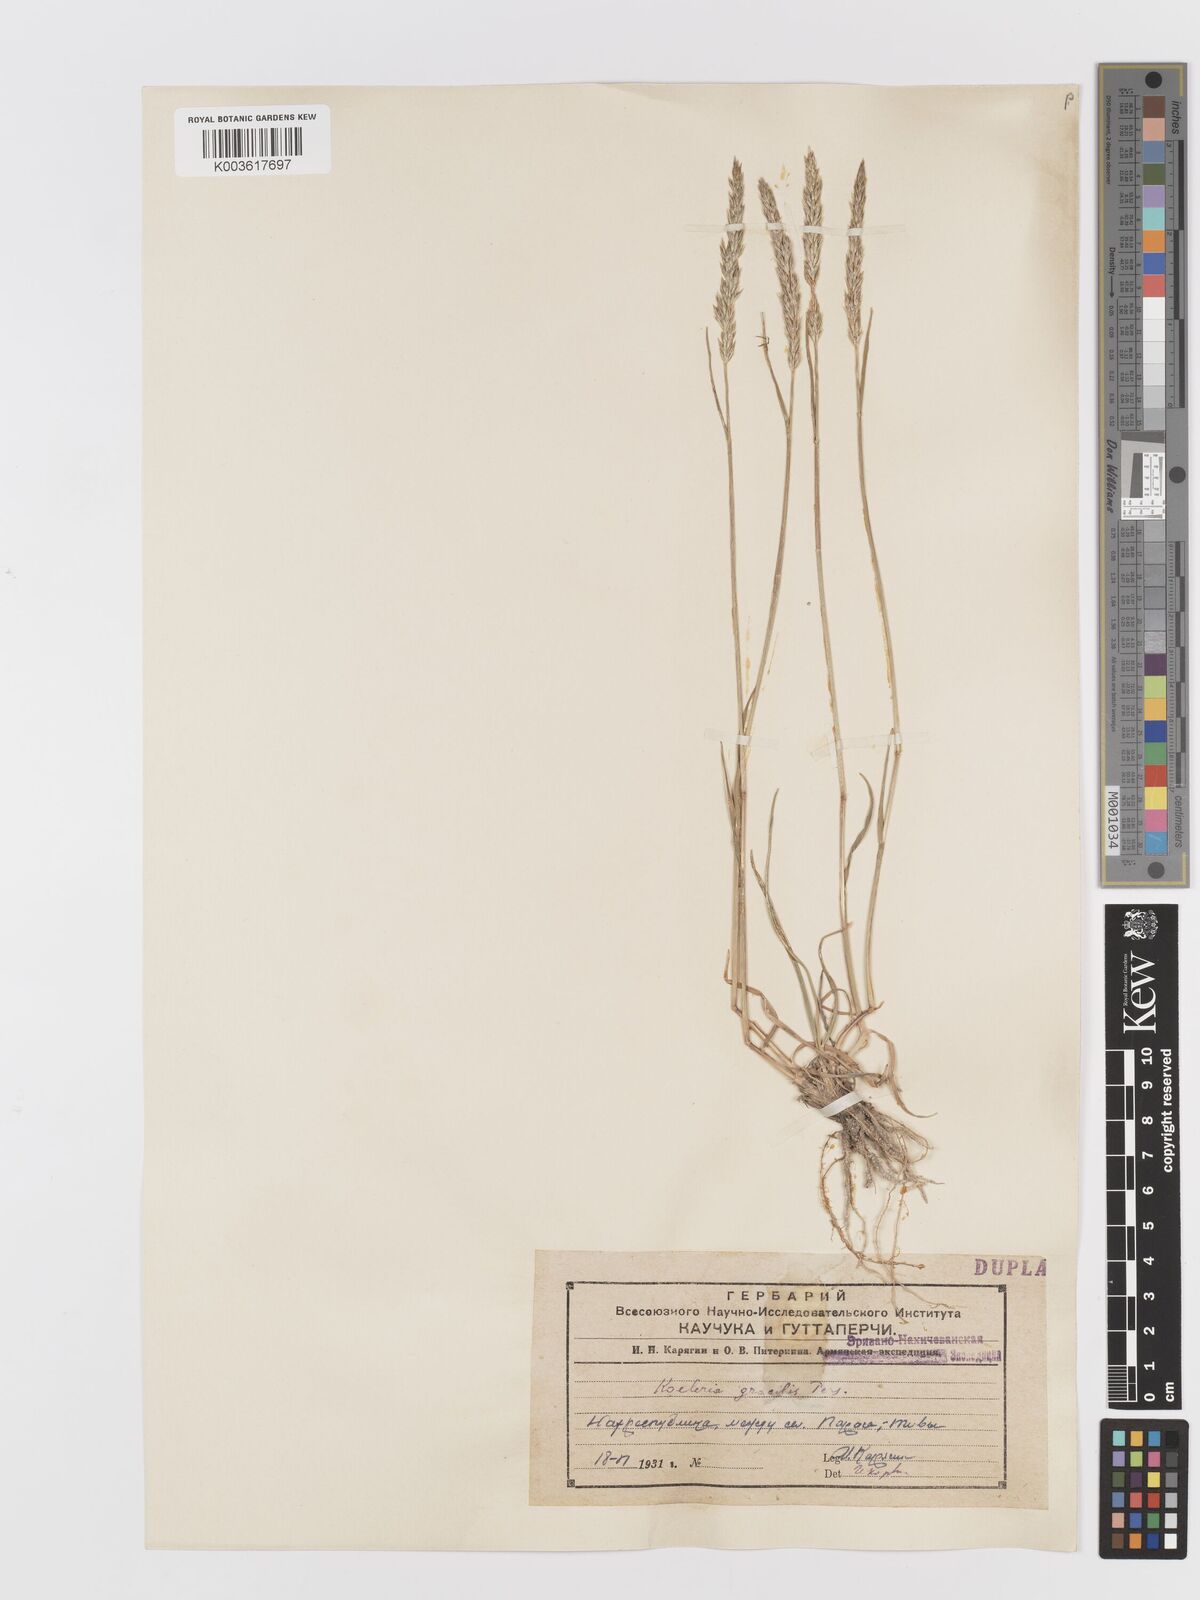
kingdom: Plantae
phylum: Tracheophyta
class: Liliopsida
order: Poales
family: Poaceae
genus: Koeleria
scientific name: Koeleria pyramidata
